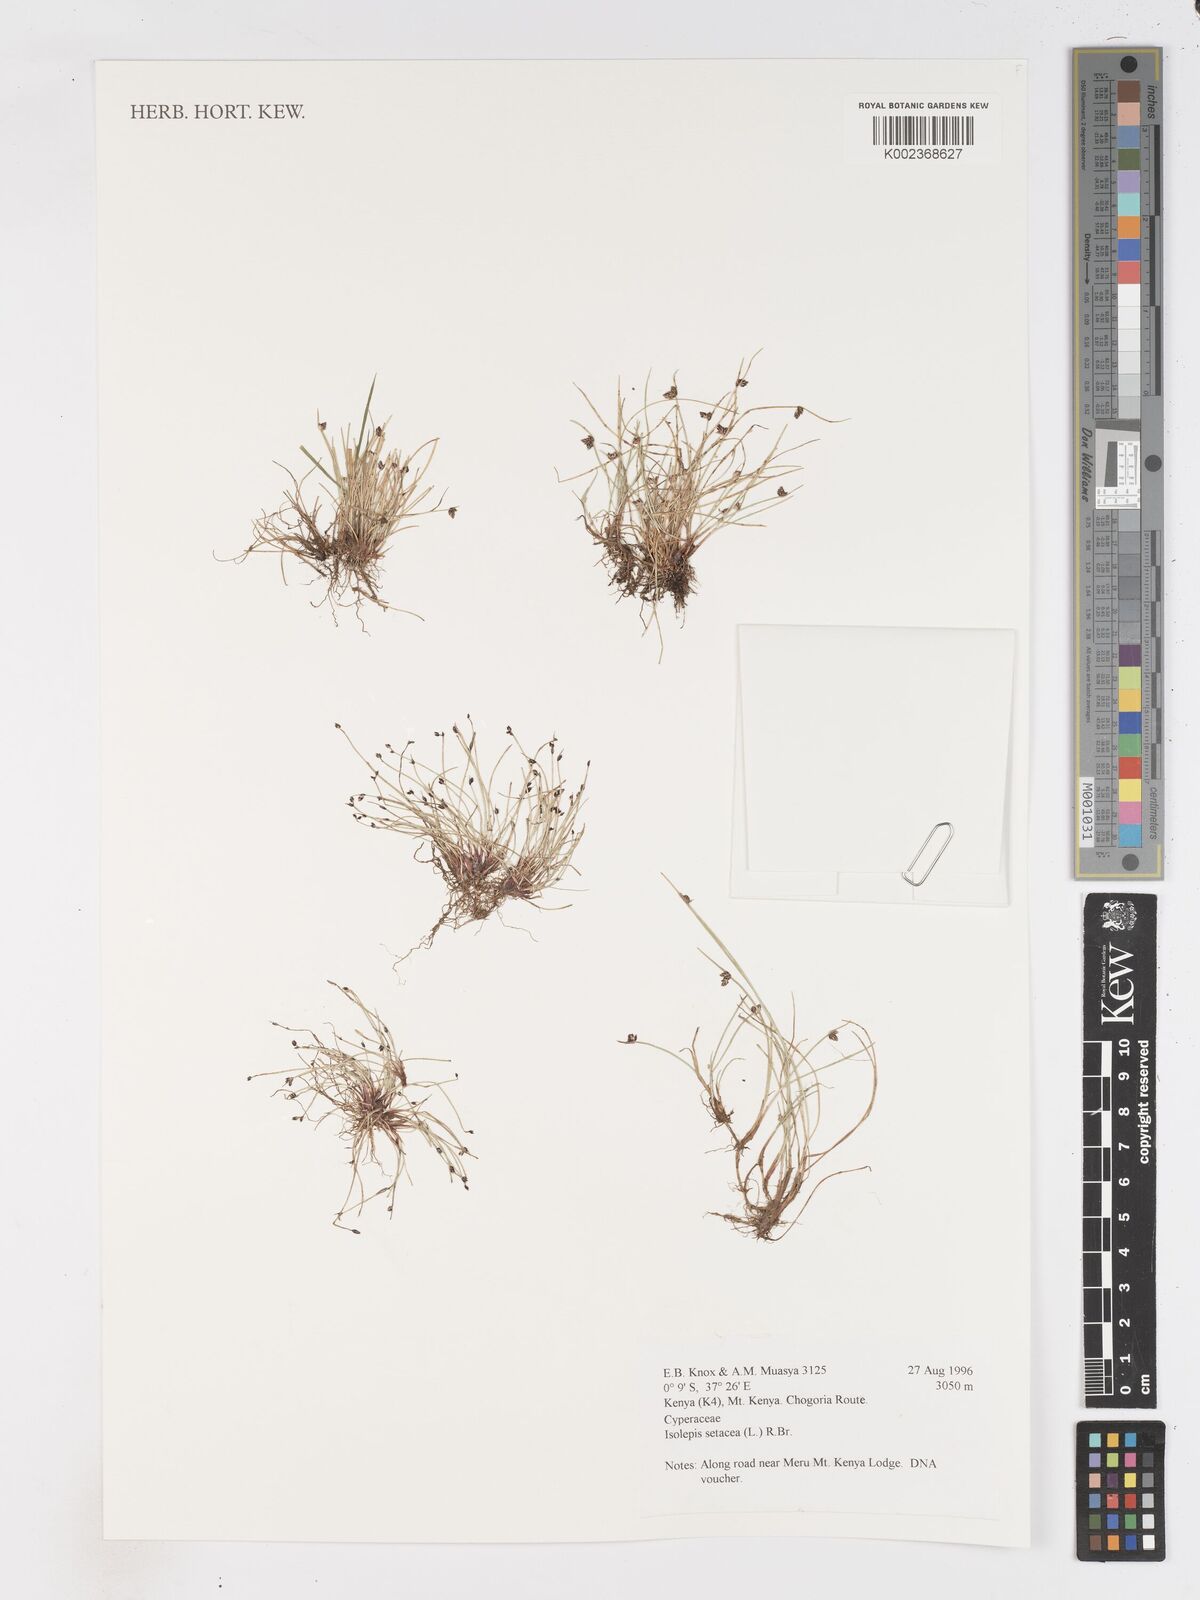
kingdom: Plantae
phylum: Tracheophyta
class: Liliopsida
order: Poales
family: Cyperaceae
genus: Isolepis
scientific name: Isolepis setacea
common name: Bristle club-rush
